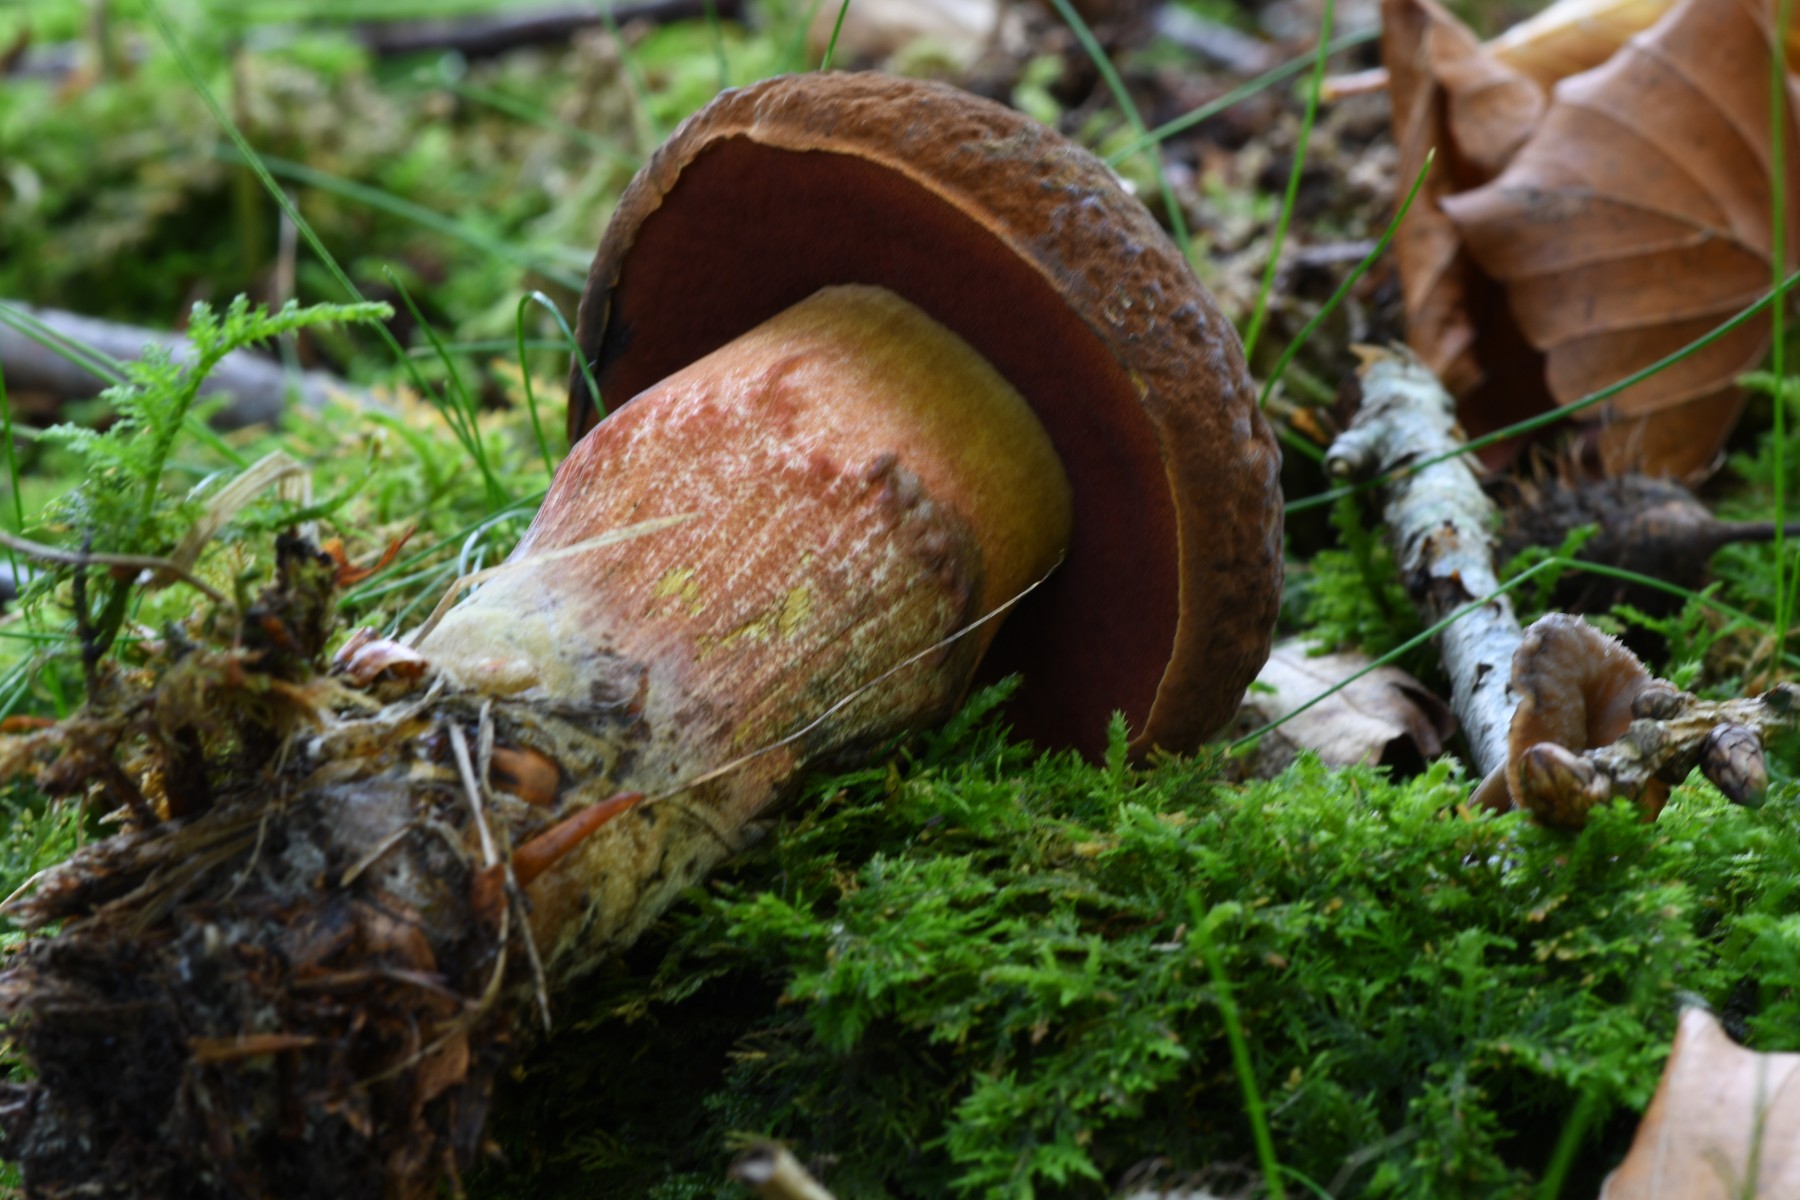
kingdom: Fungi
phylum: Basidiomycota
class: Agaricomycetes
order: Boletales
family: Boletaceae
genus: Neoboletus
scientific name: Neoboletus erythropus
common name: punktstokket indigorørhat
